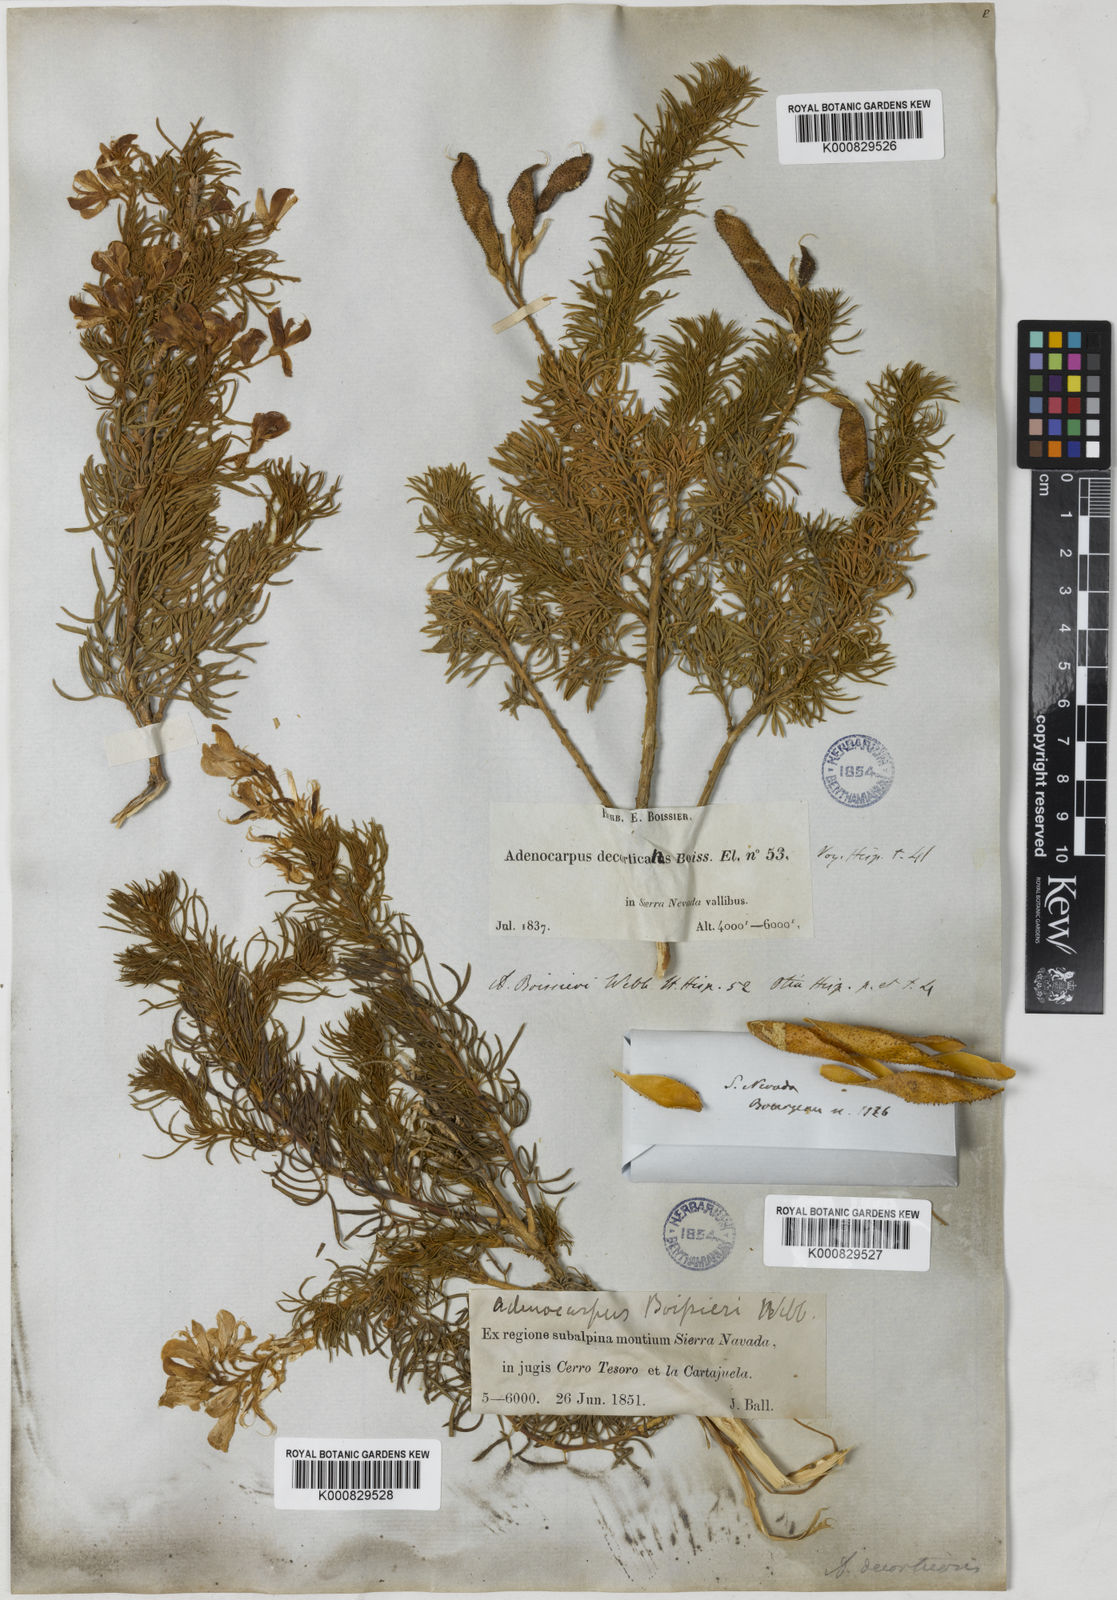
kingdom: Plantae
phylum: Tracheophyta
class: Magnoliopsida
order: Fabales
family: Fabaceae
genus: Adenocarpus
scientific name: Adenocarpus decorticans
